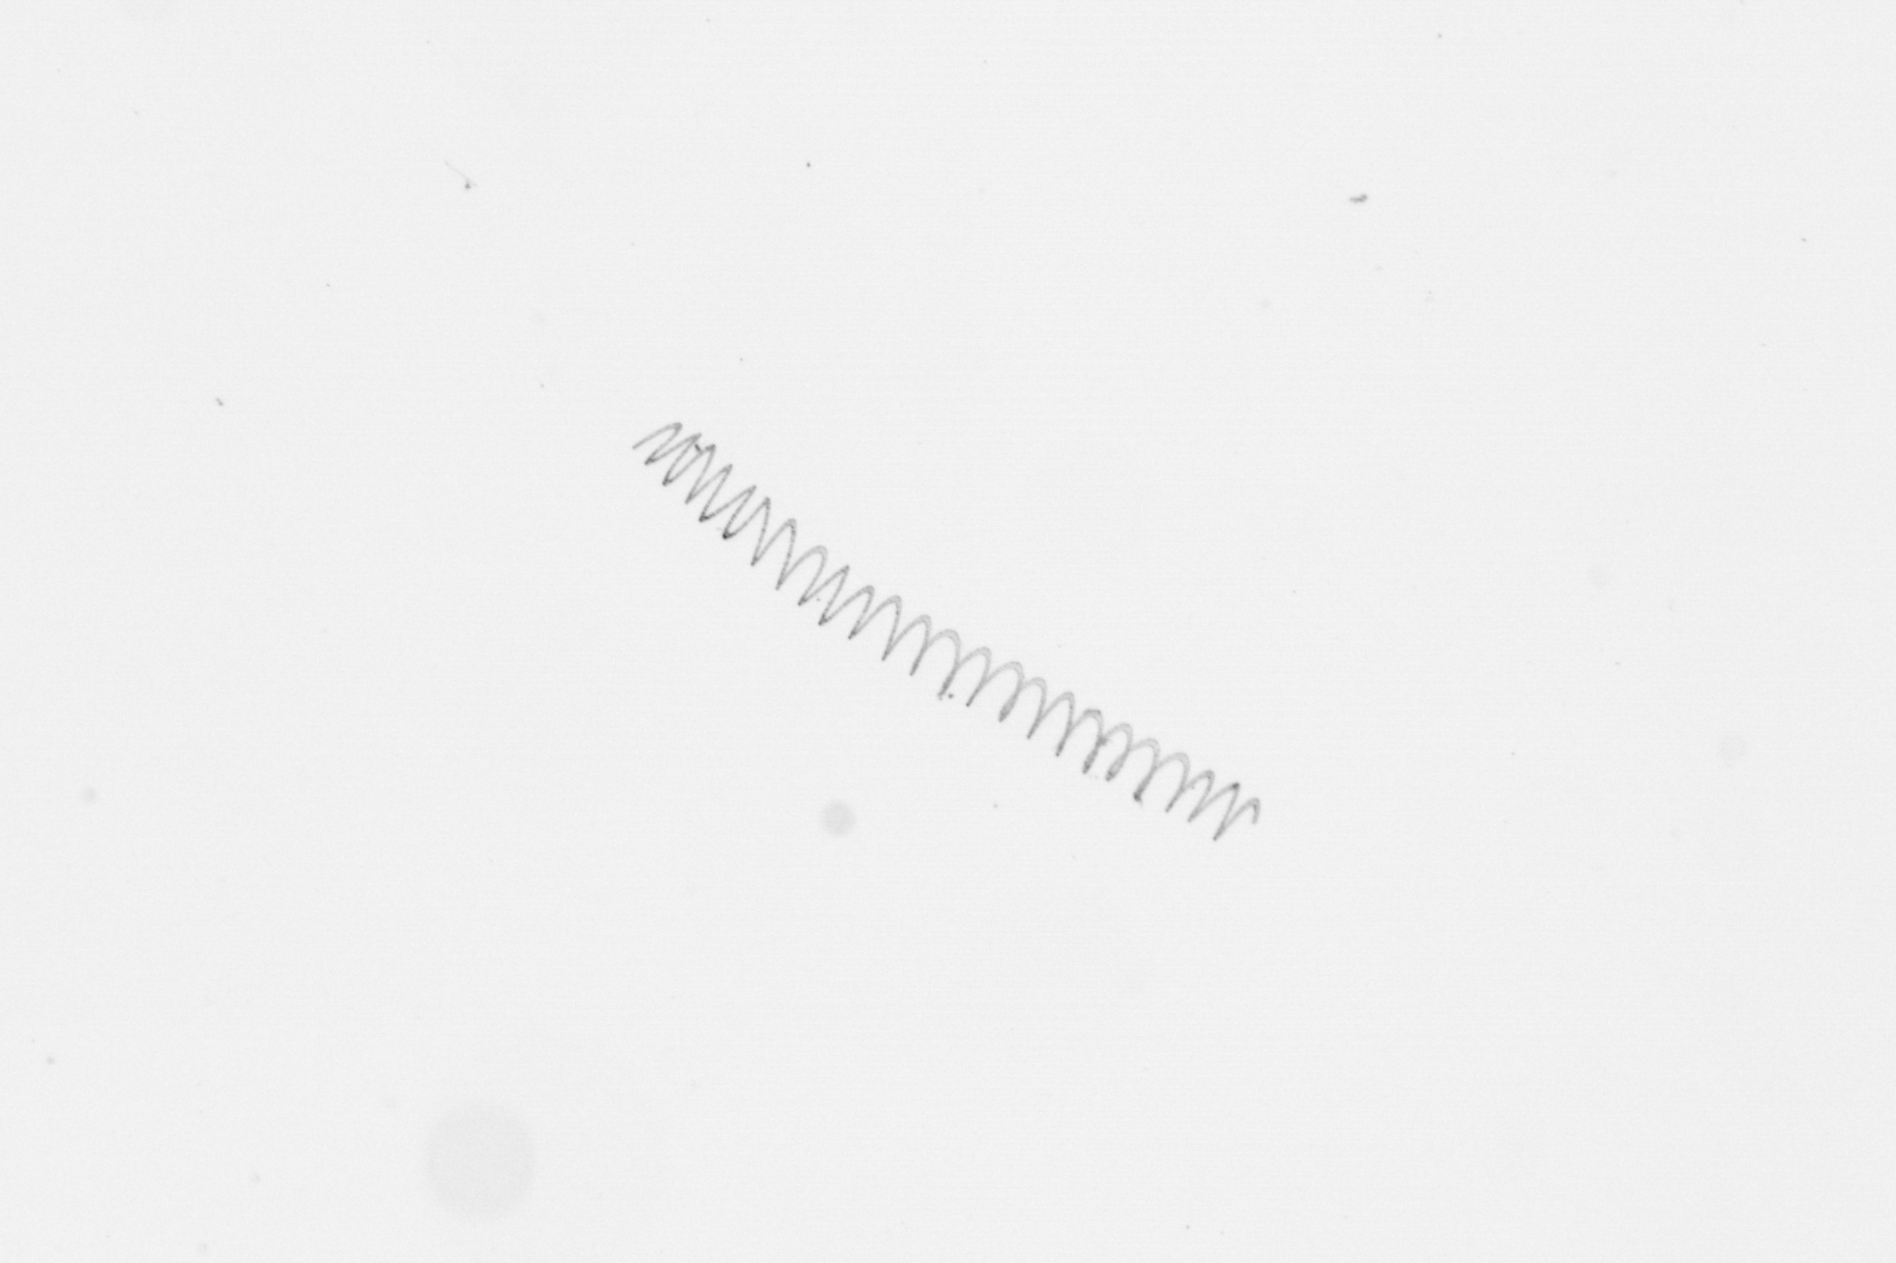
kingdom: Chromista
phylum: Ochrophyta
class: Bacillariophyceae
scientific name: Bacillariophyceae
